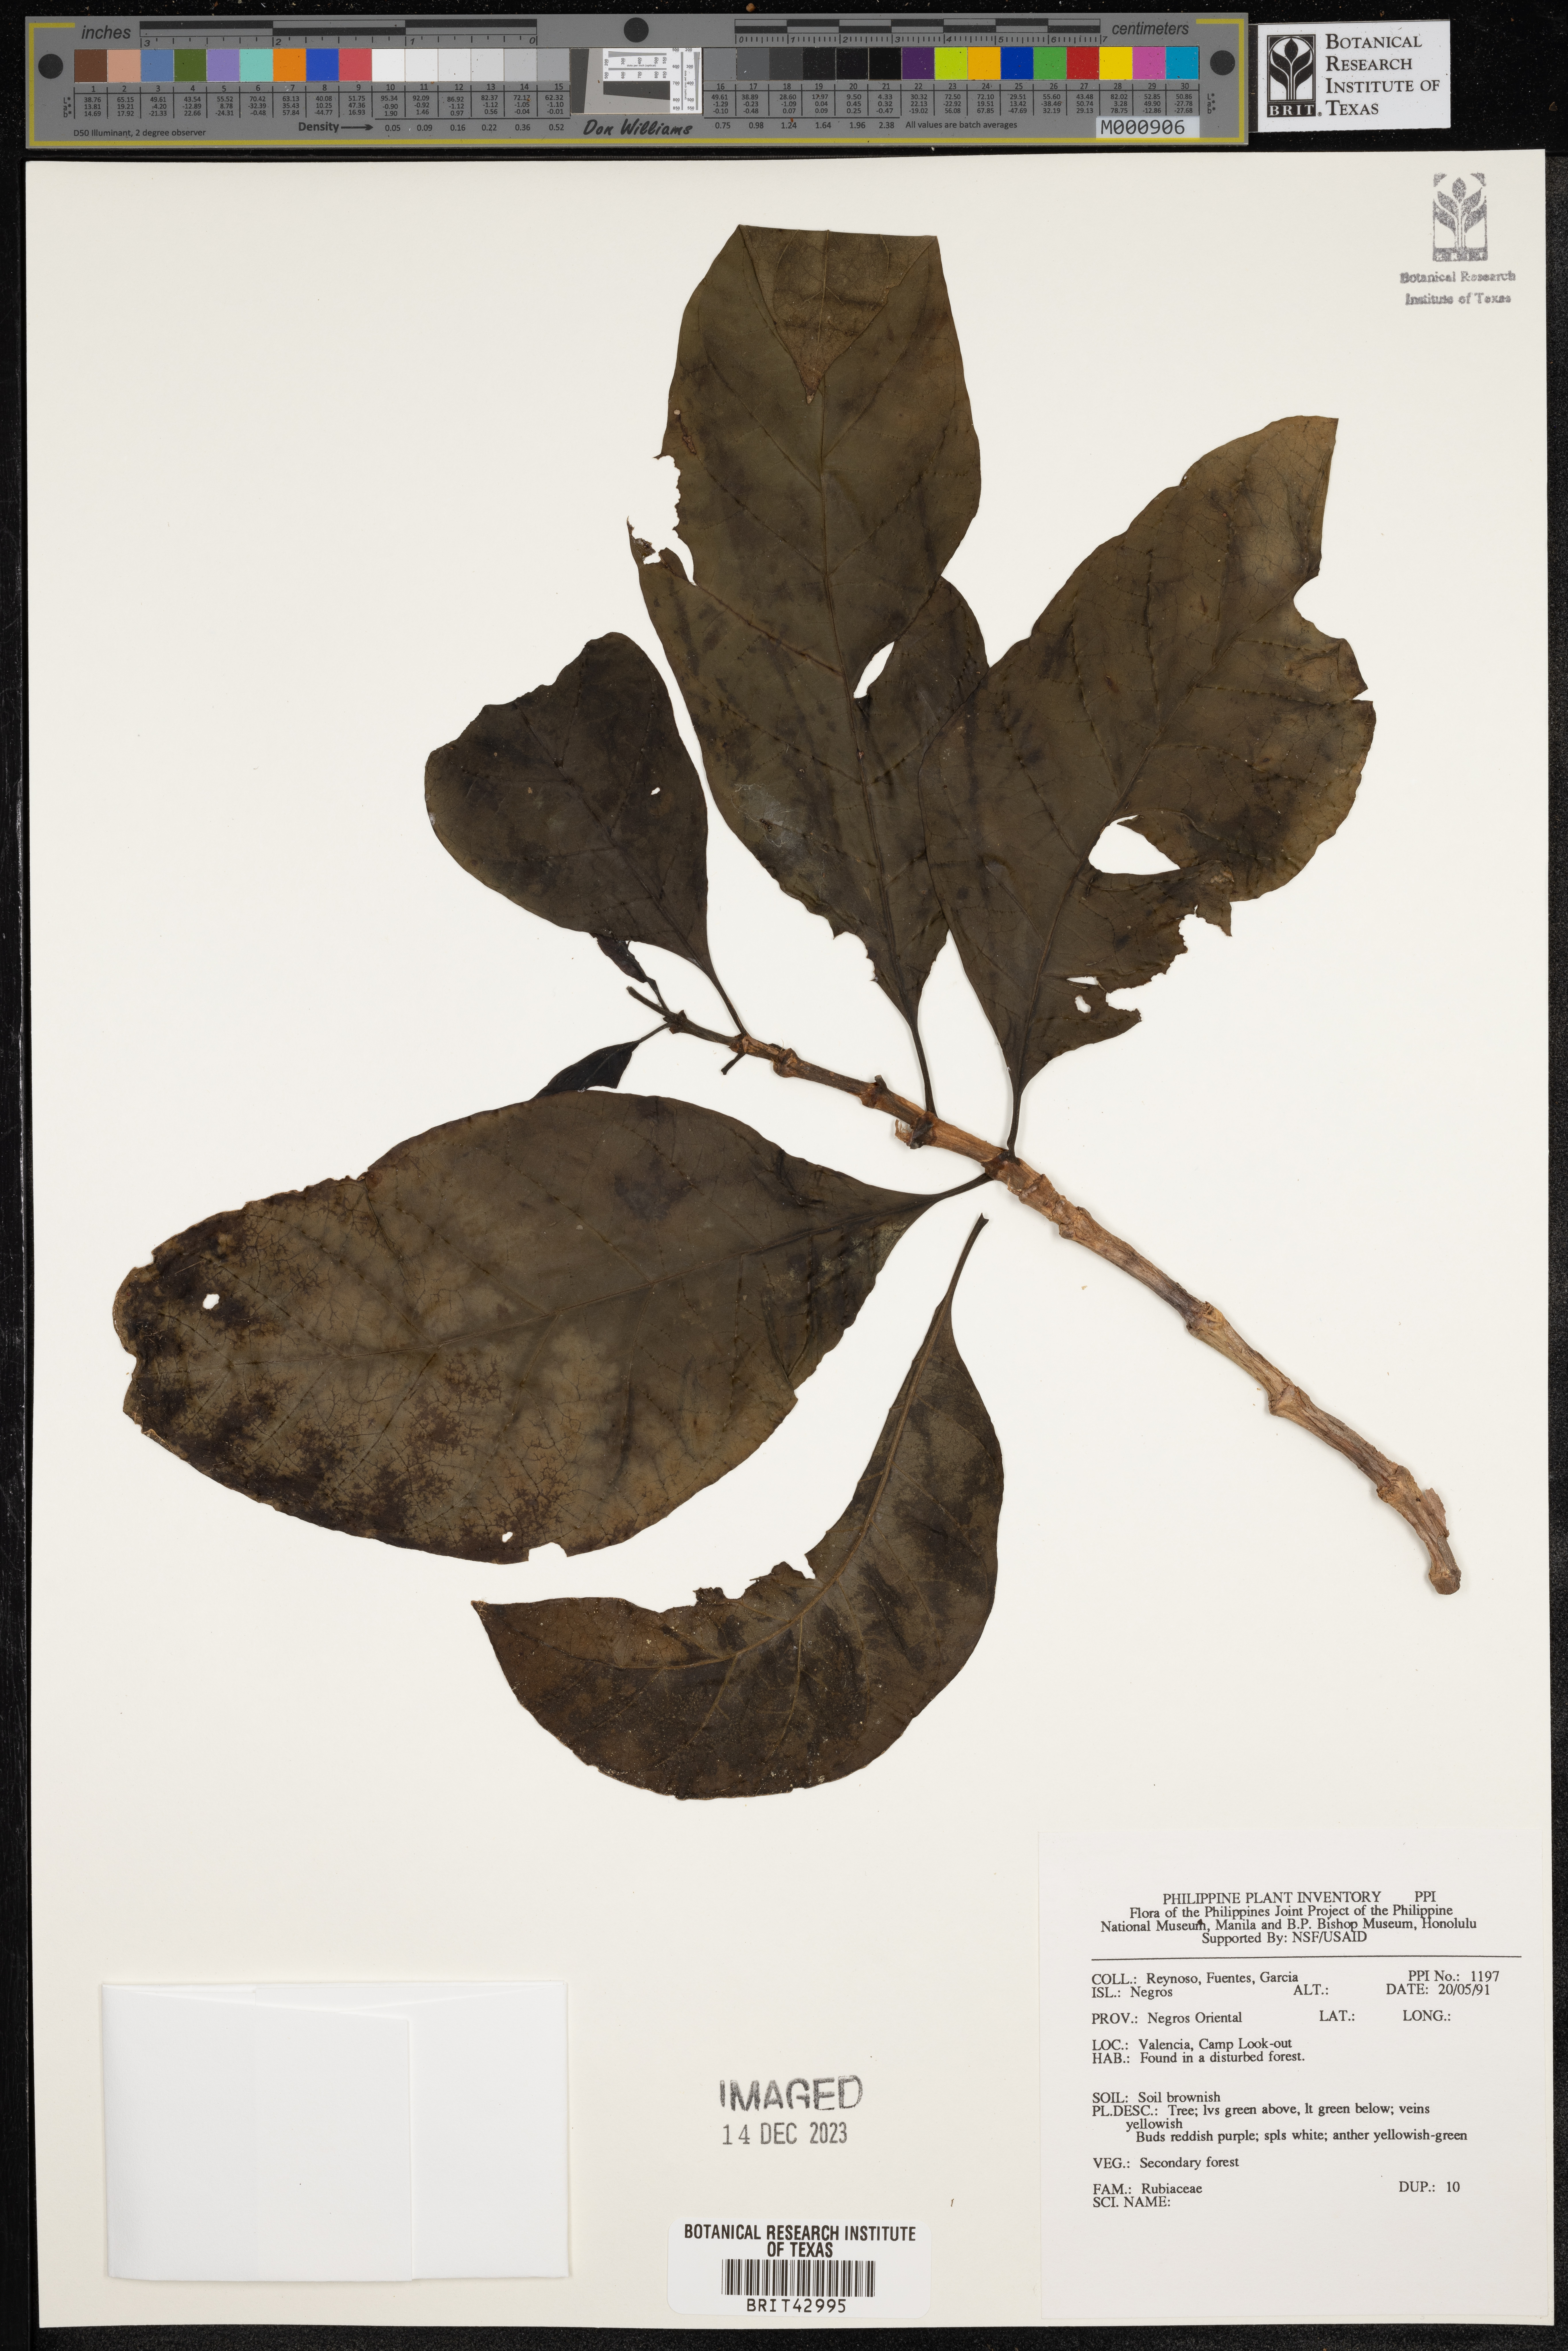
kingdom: Plantae
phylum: Tracheophyta
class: Magnoliopsida
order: Gentianales
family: Rubiaceae
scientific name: Rubiaceae
